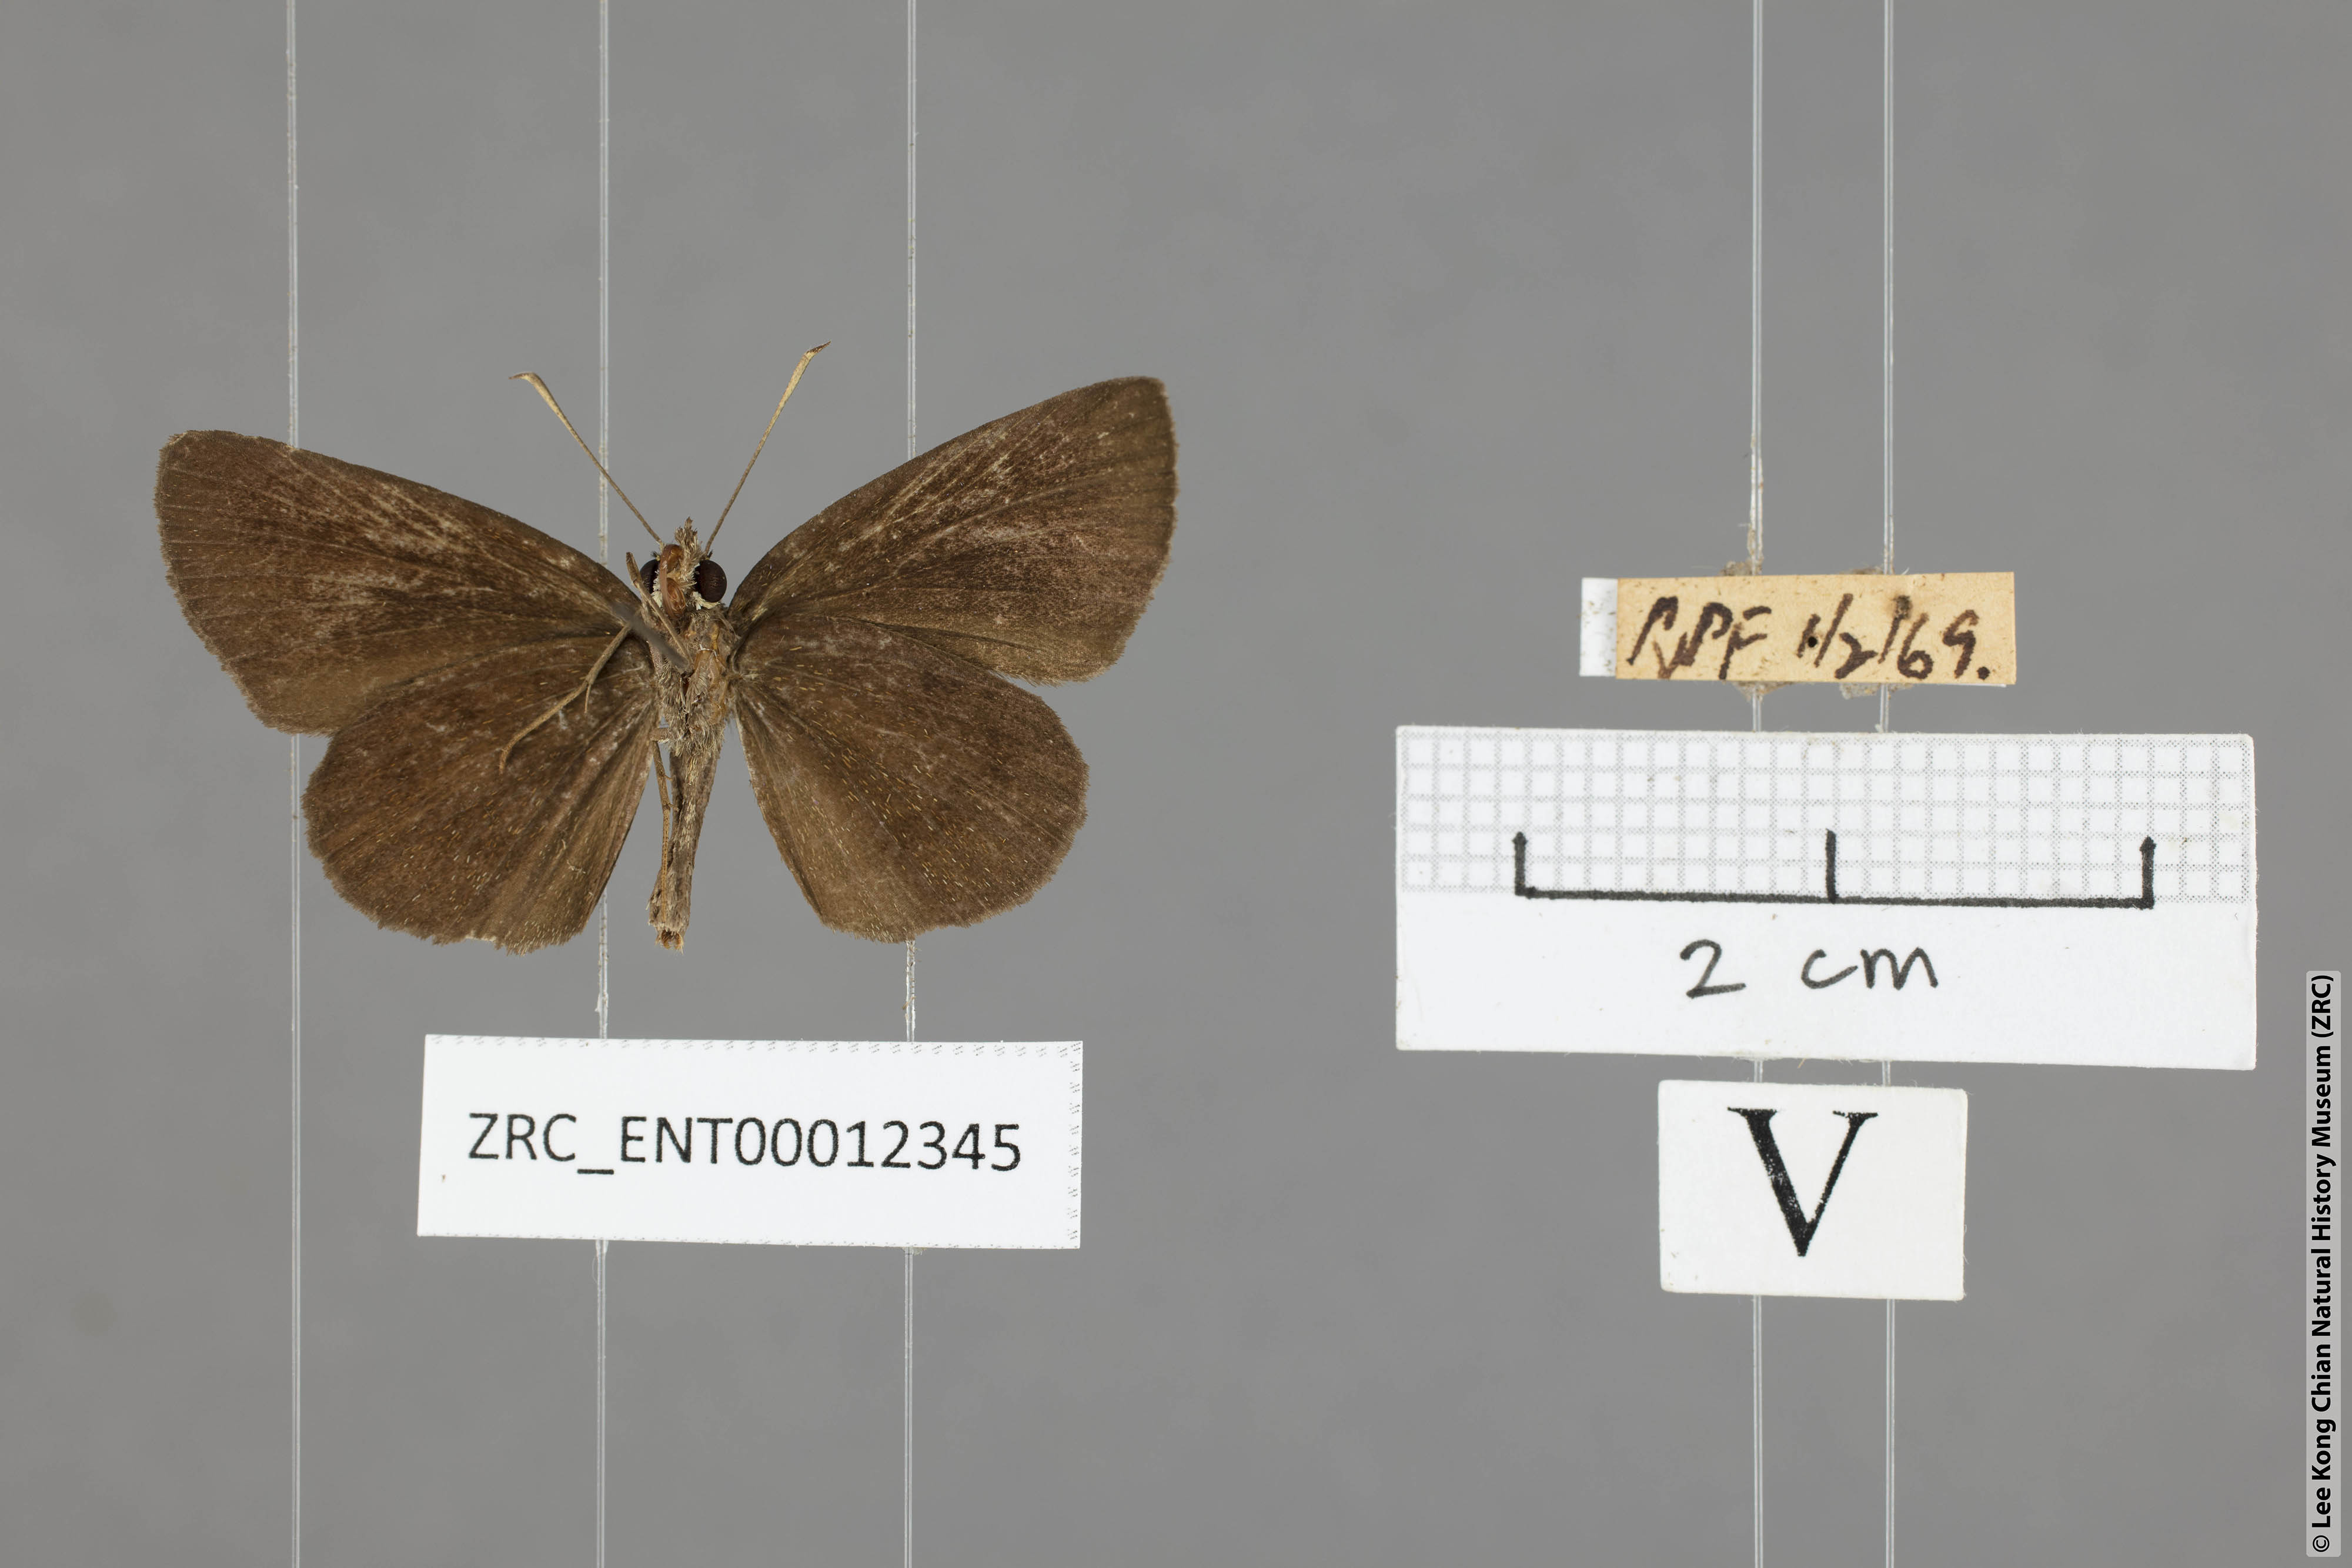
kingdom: Animalia
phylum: Arthropoda
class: Insecta
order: Lepidoptera
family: Hesperiidae
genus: Astictopterus
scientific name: Astictopterus jama
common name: Forest hopper
